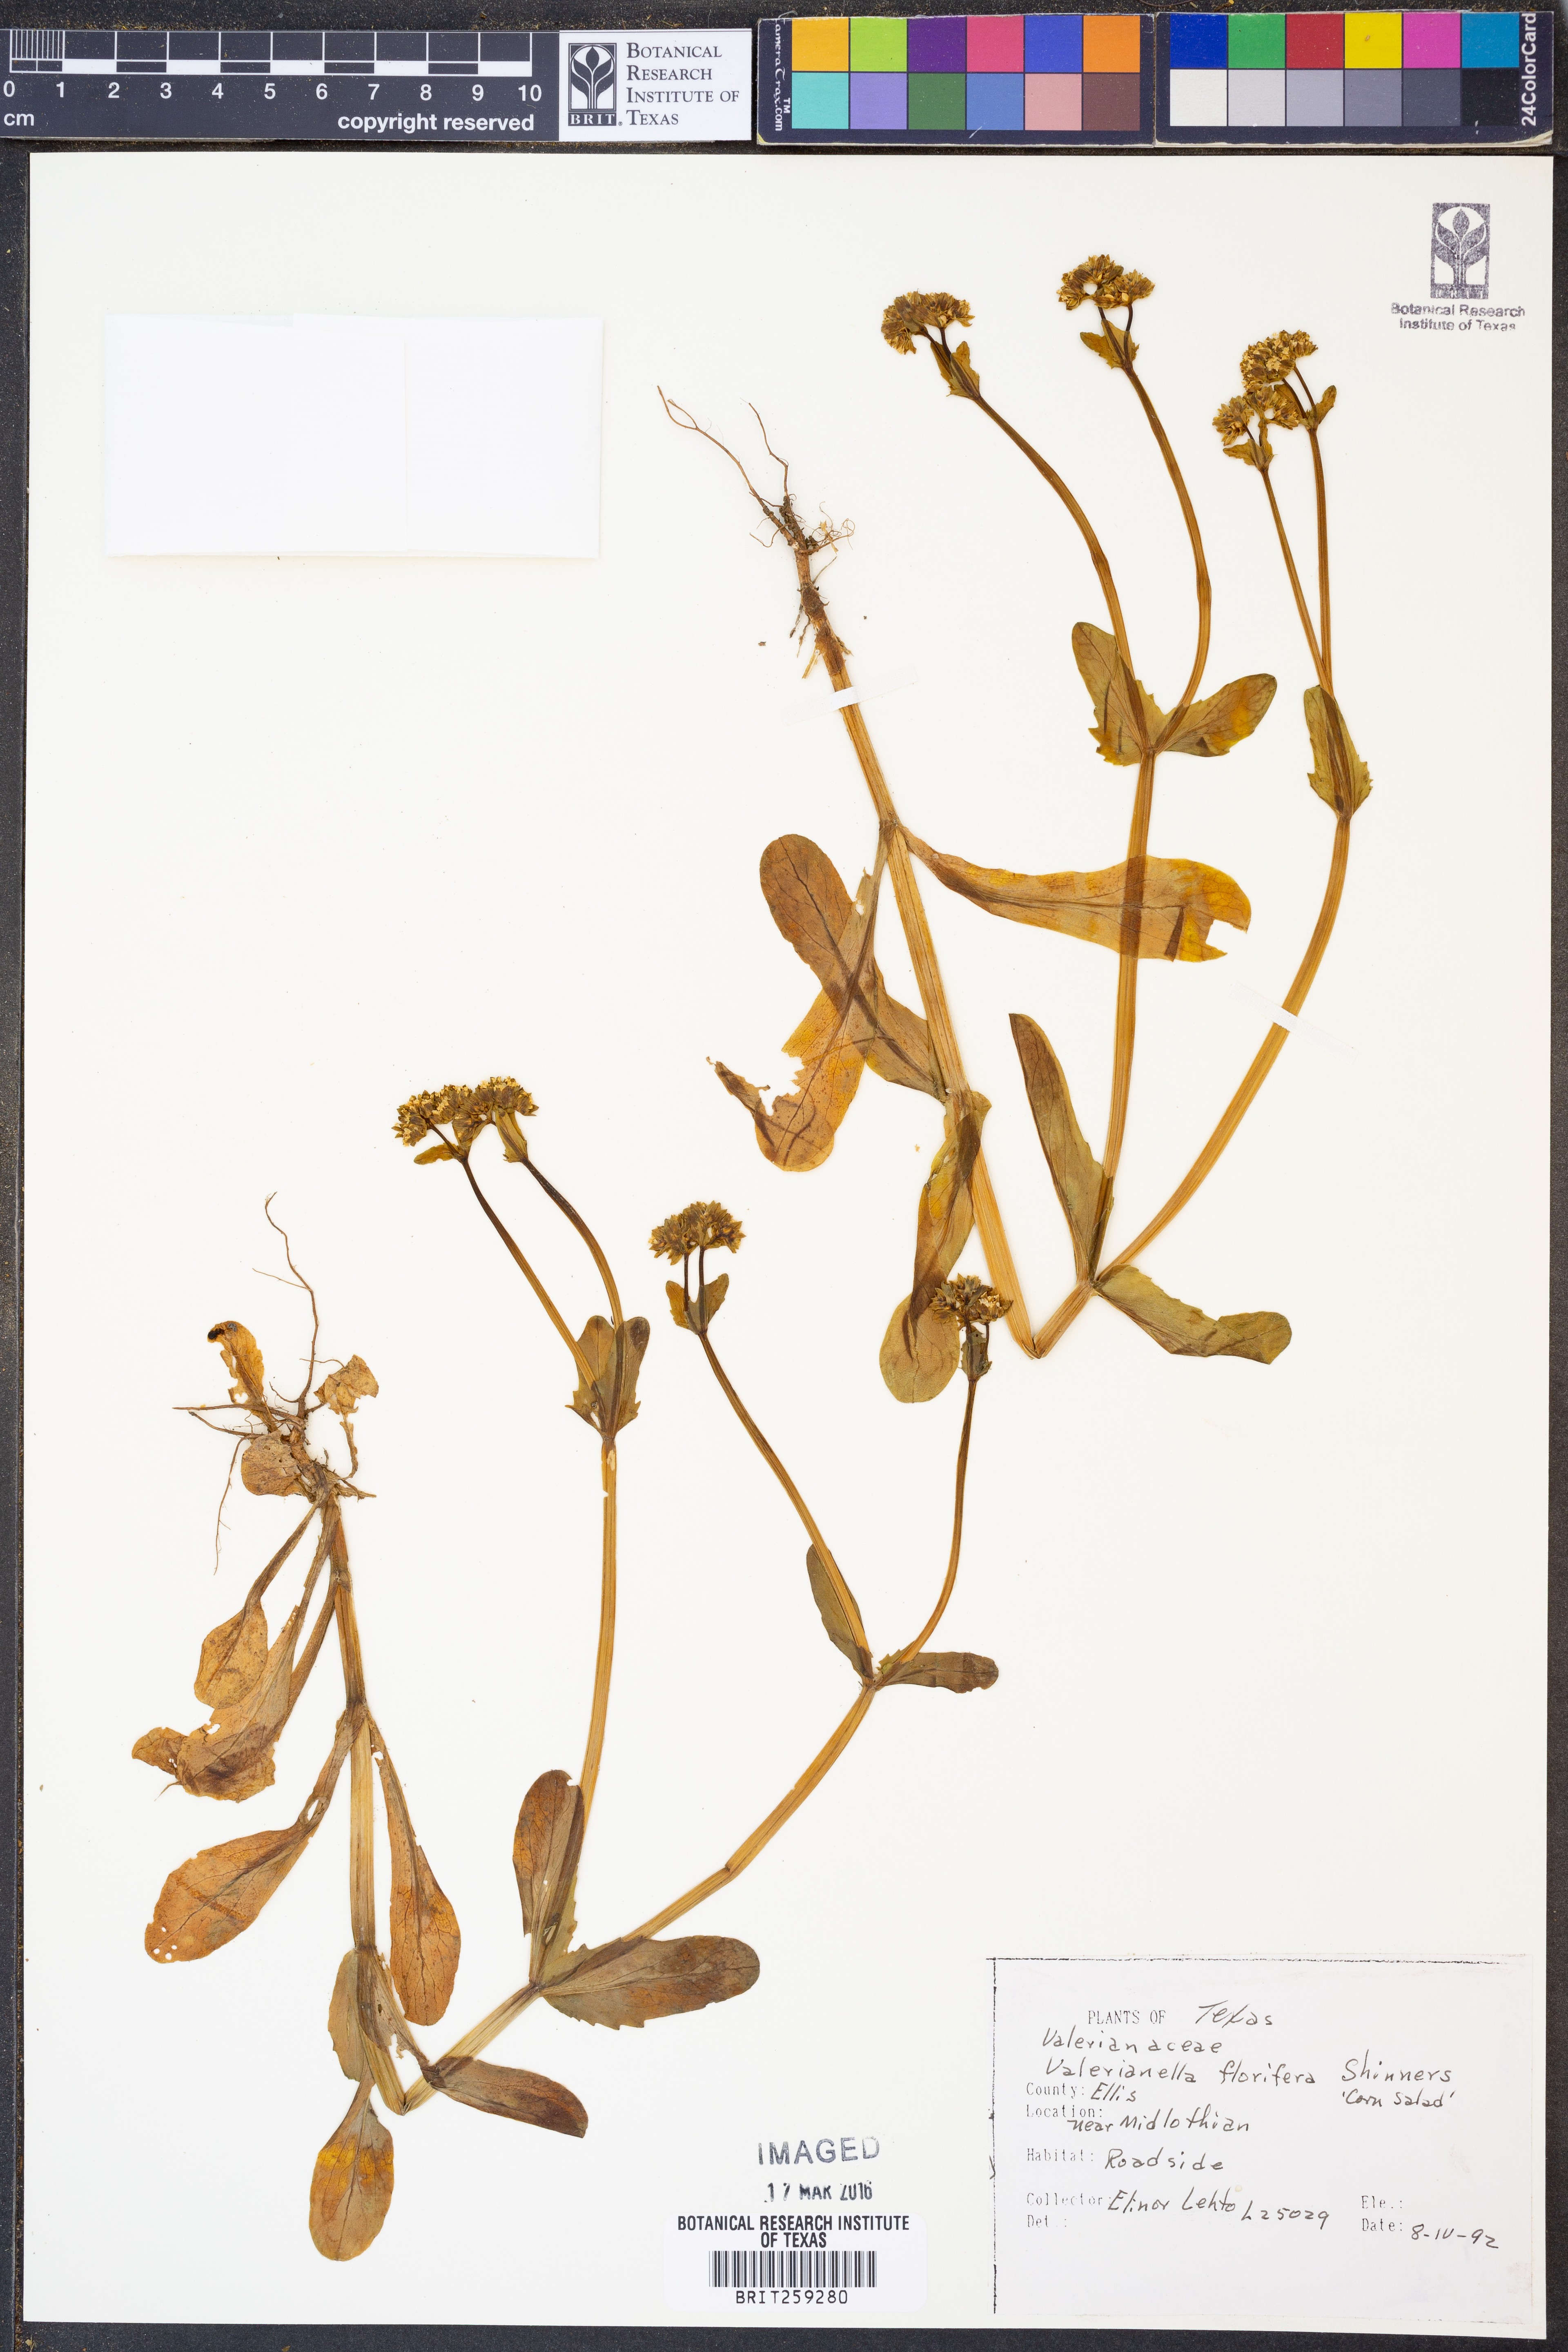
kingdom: Plantae
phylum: Tracheophyta
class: Magnoliopsida
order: Dipsacales
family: Caprifoliaceae
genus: Valerianella
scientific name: Valerianella florifera
